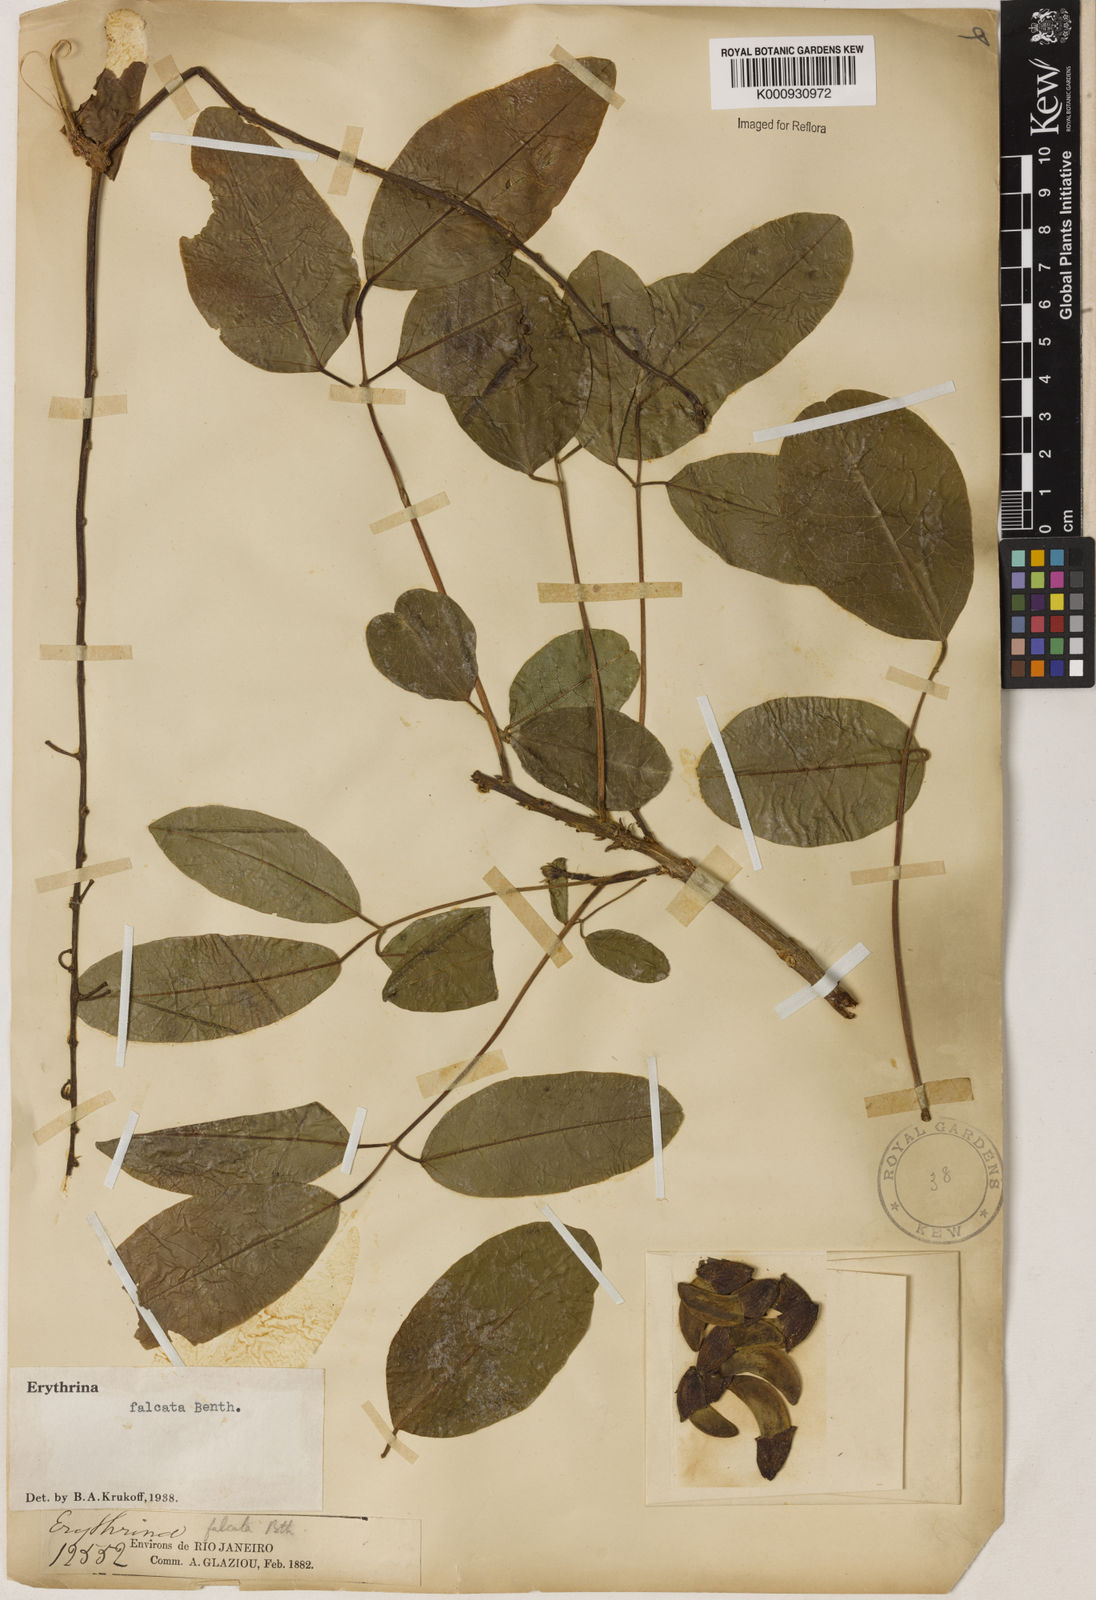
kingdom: Plantae
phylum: Tracheophyta
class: Magnoliopsida
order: Fabales
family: Fabaceae
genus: Erythrina
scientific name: Erythrina falcata
